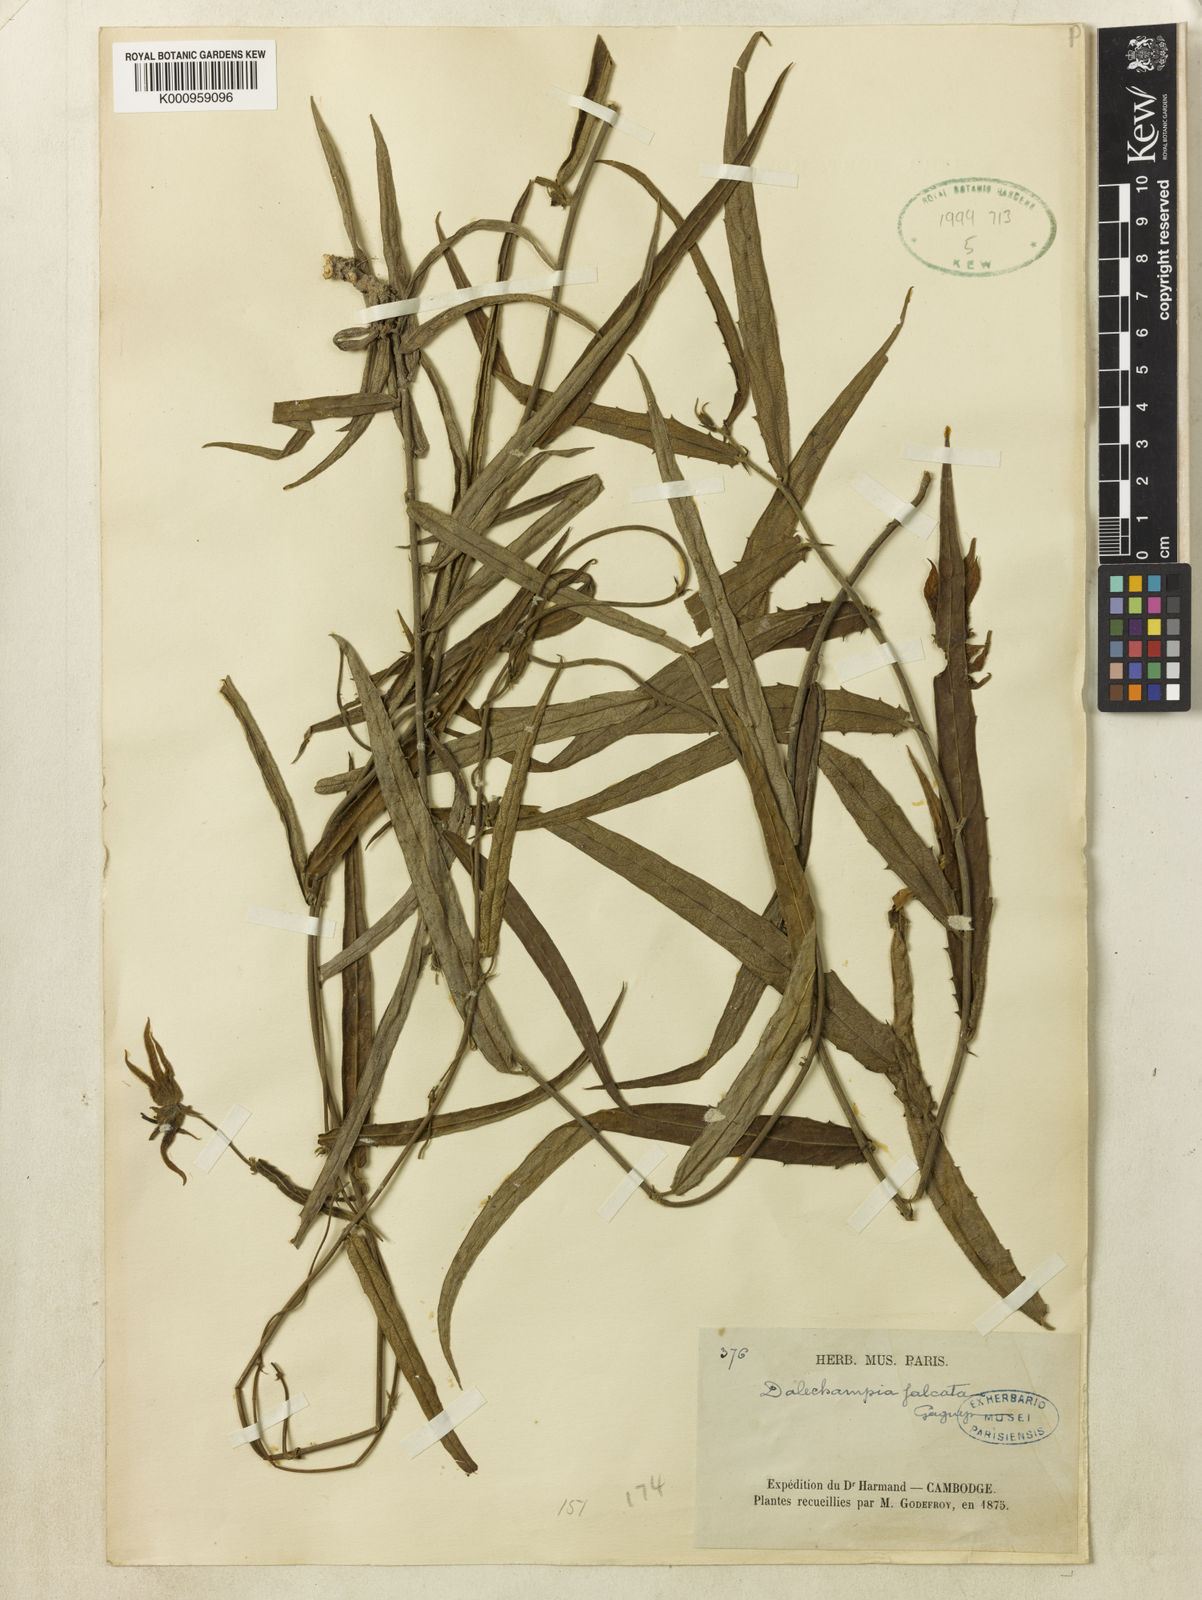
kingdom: Plantae
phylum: Tracheophyta
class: Magnoliopsida
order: Malpighiales
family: Euphorbiaceae
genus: Dalechampia
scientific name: Dalechampia falcata
